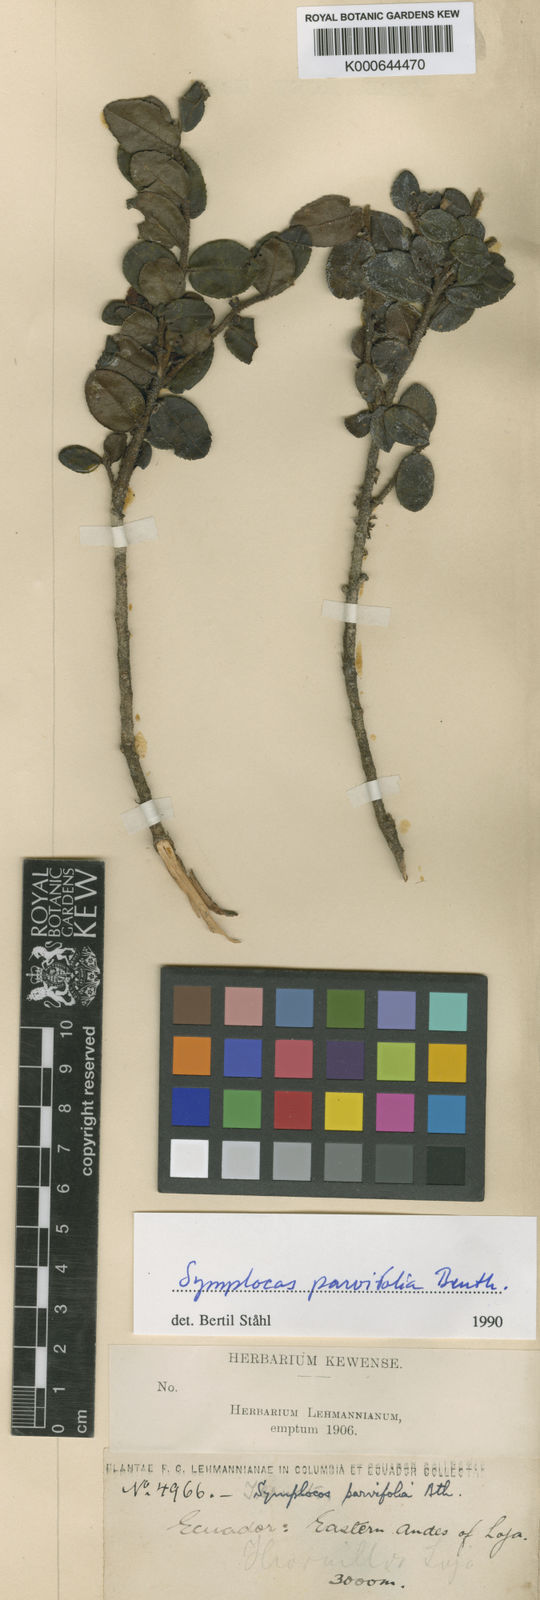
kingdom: Plantae
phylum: Tracheophyta
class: Magnoliopsida
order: Ericales
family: Symplocaceae
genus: Symplocos
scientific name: Symplocos uniflora
